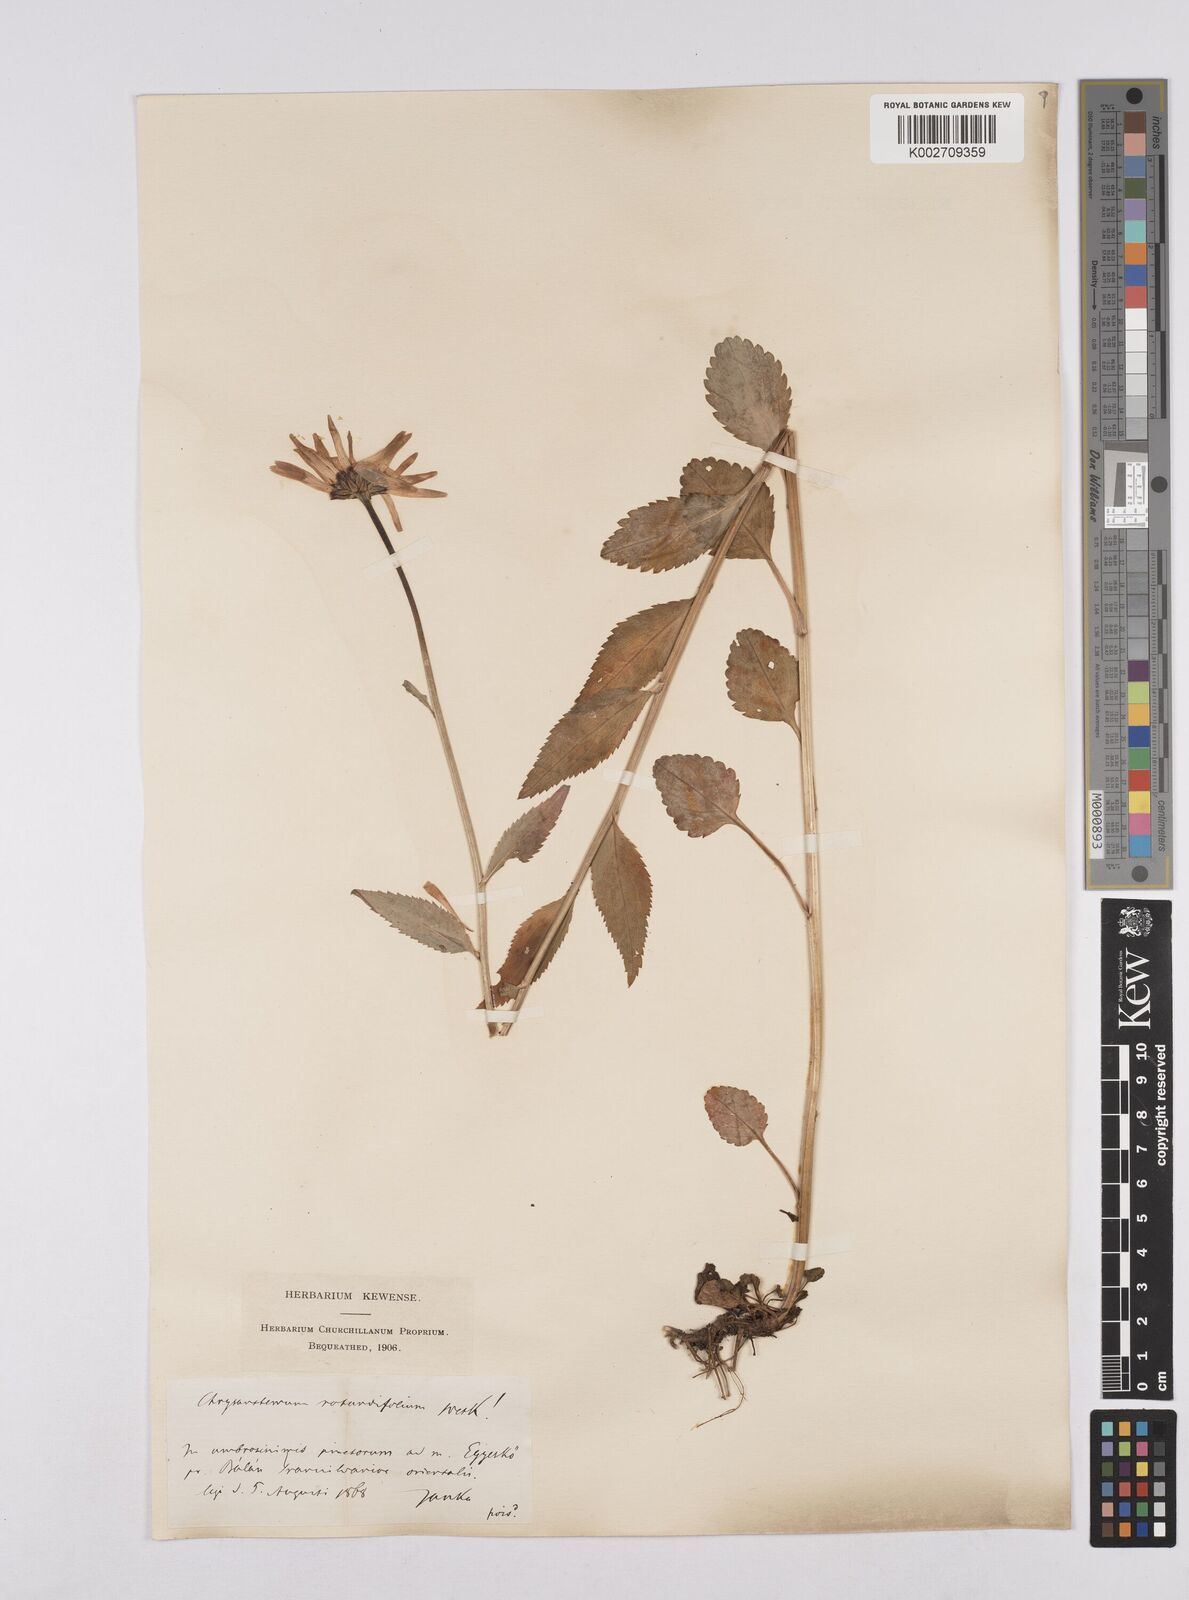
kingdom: Plantae
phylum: Tracheophyta
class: Magnoliopsida
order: Asterales
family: Asteraceae
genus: Leucanthemum
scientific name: Leucanthemum rotundifolium
